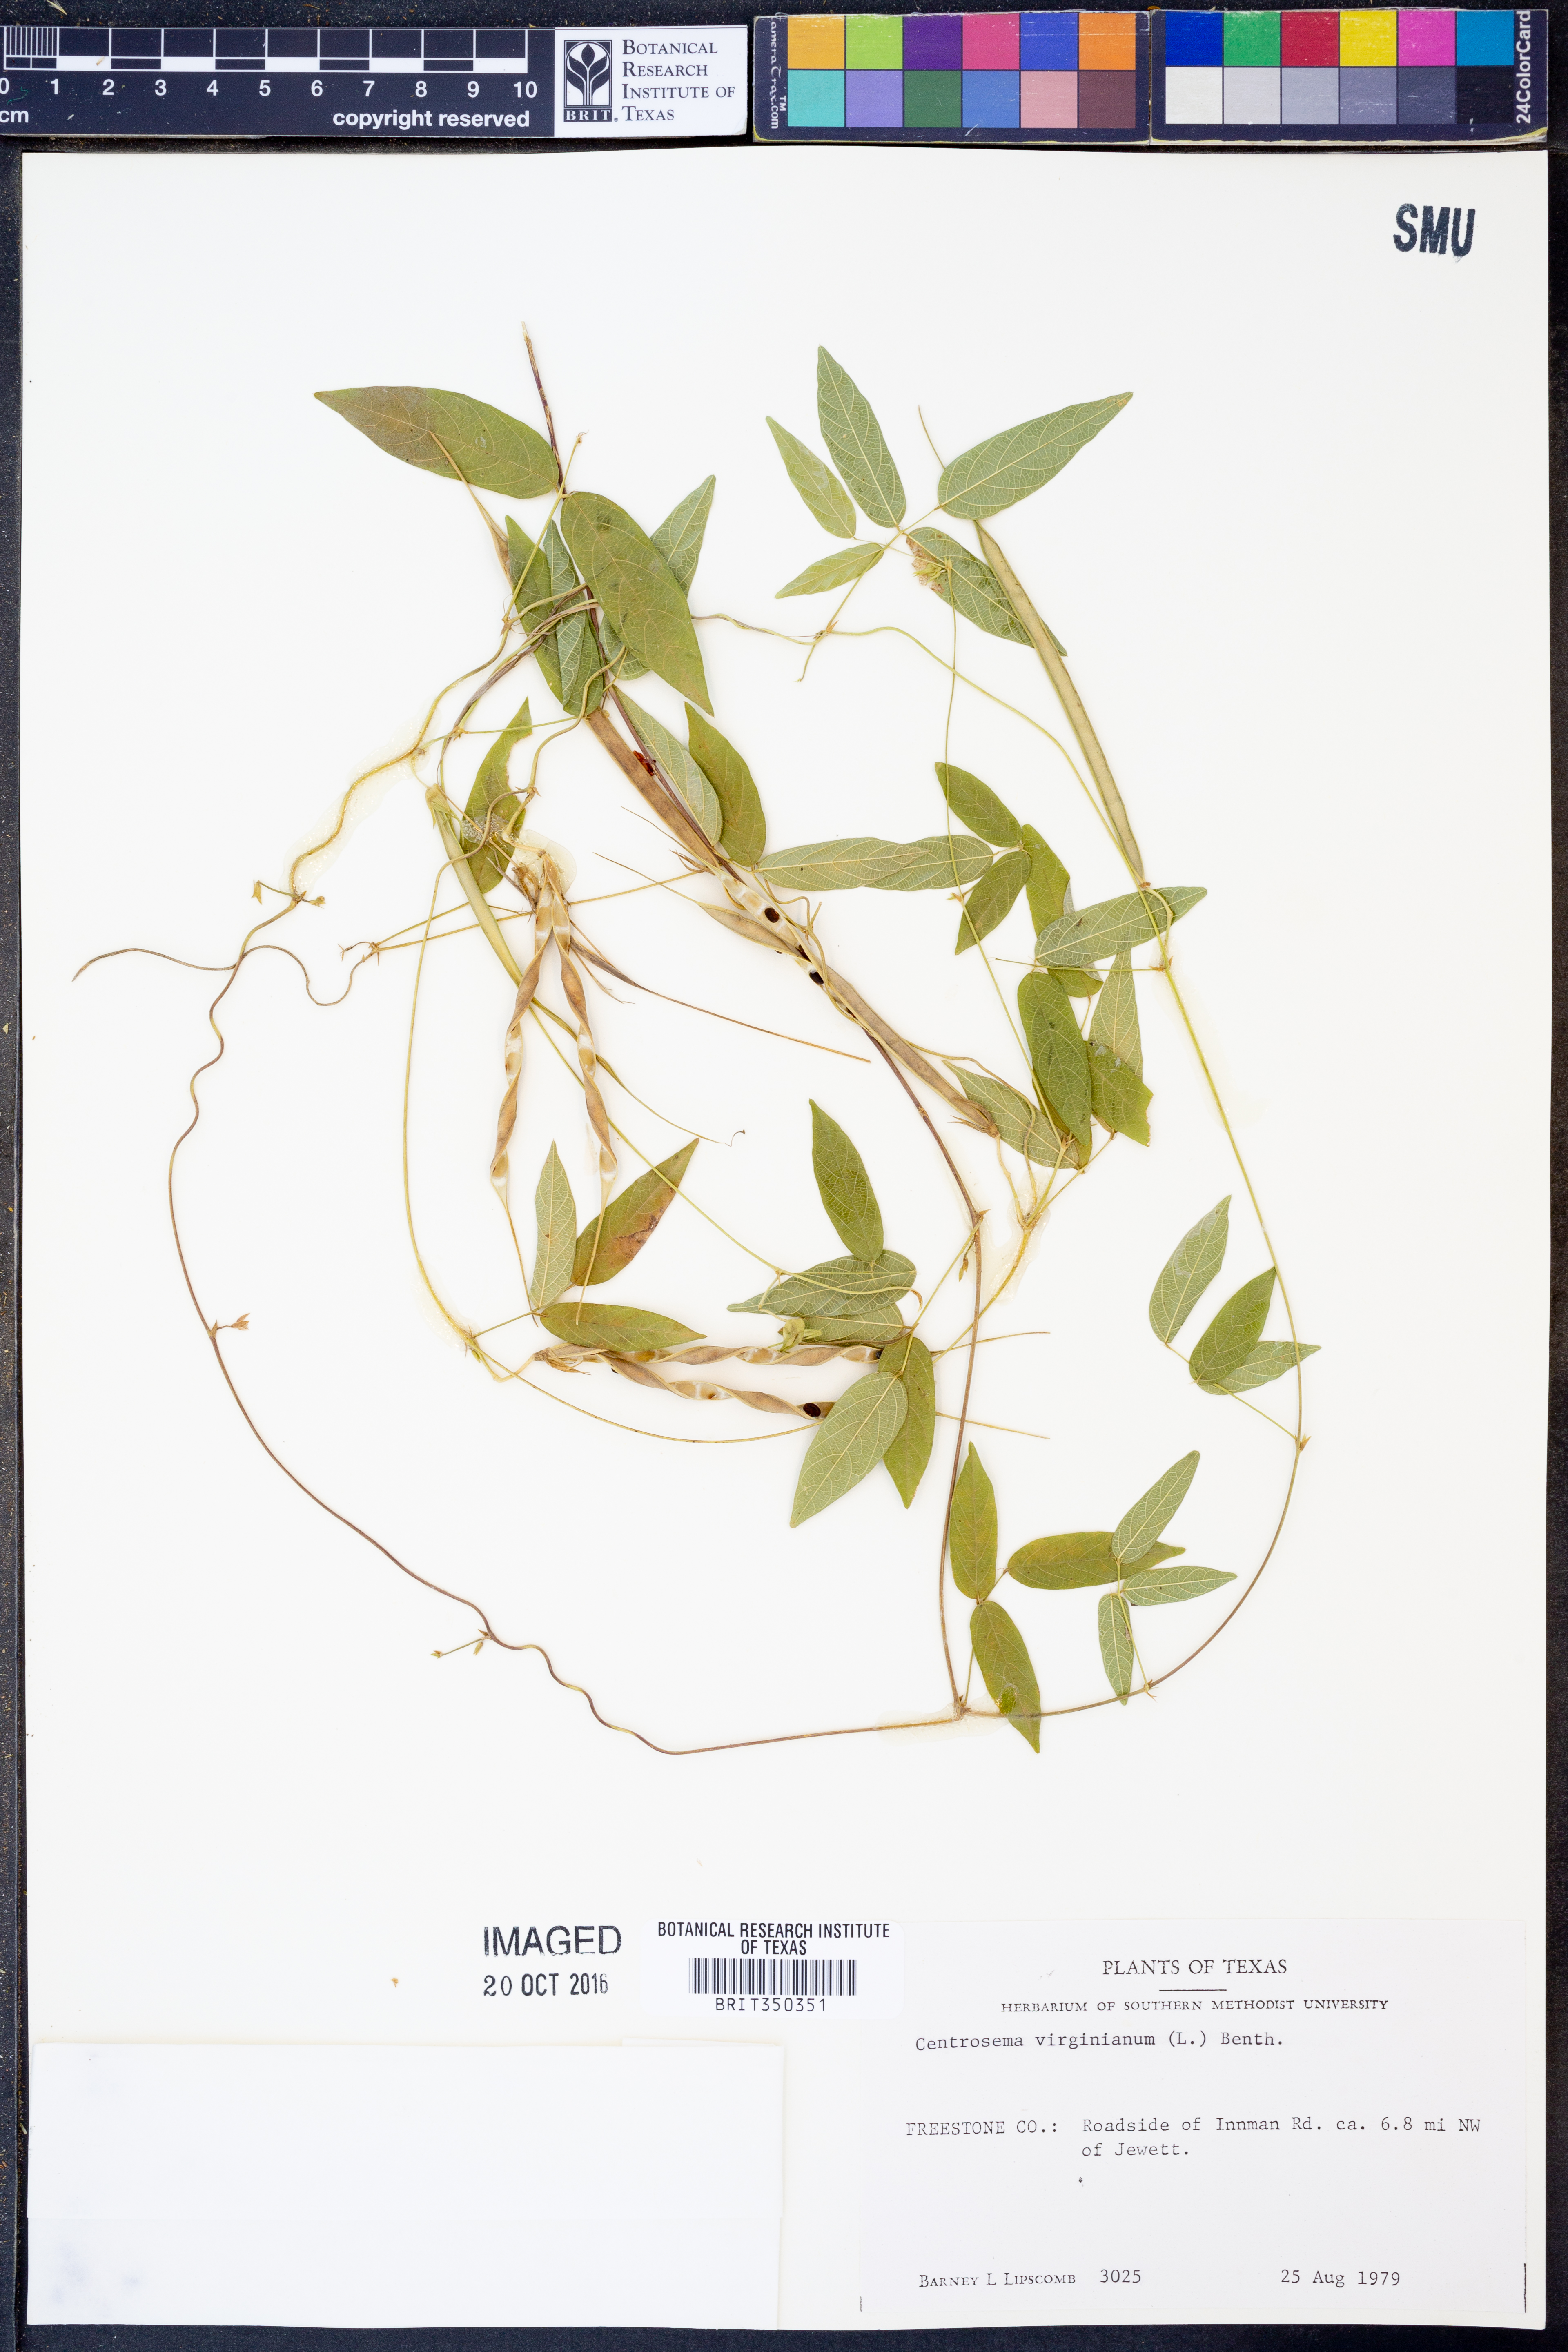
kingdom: Plantae
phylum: Tracheophyta
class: Magnoliopsida
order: Fabales
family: Fabaceae
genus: Centrosema
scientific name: Centrosema virginianum
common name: Butterfly-pea
